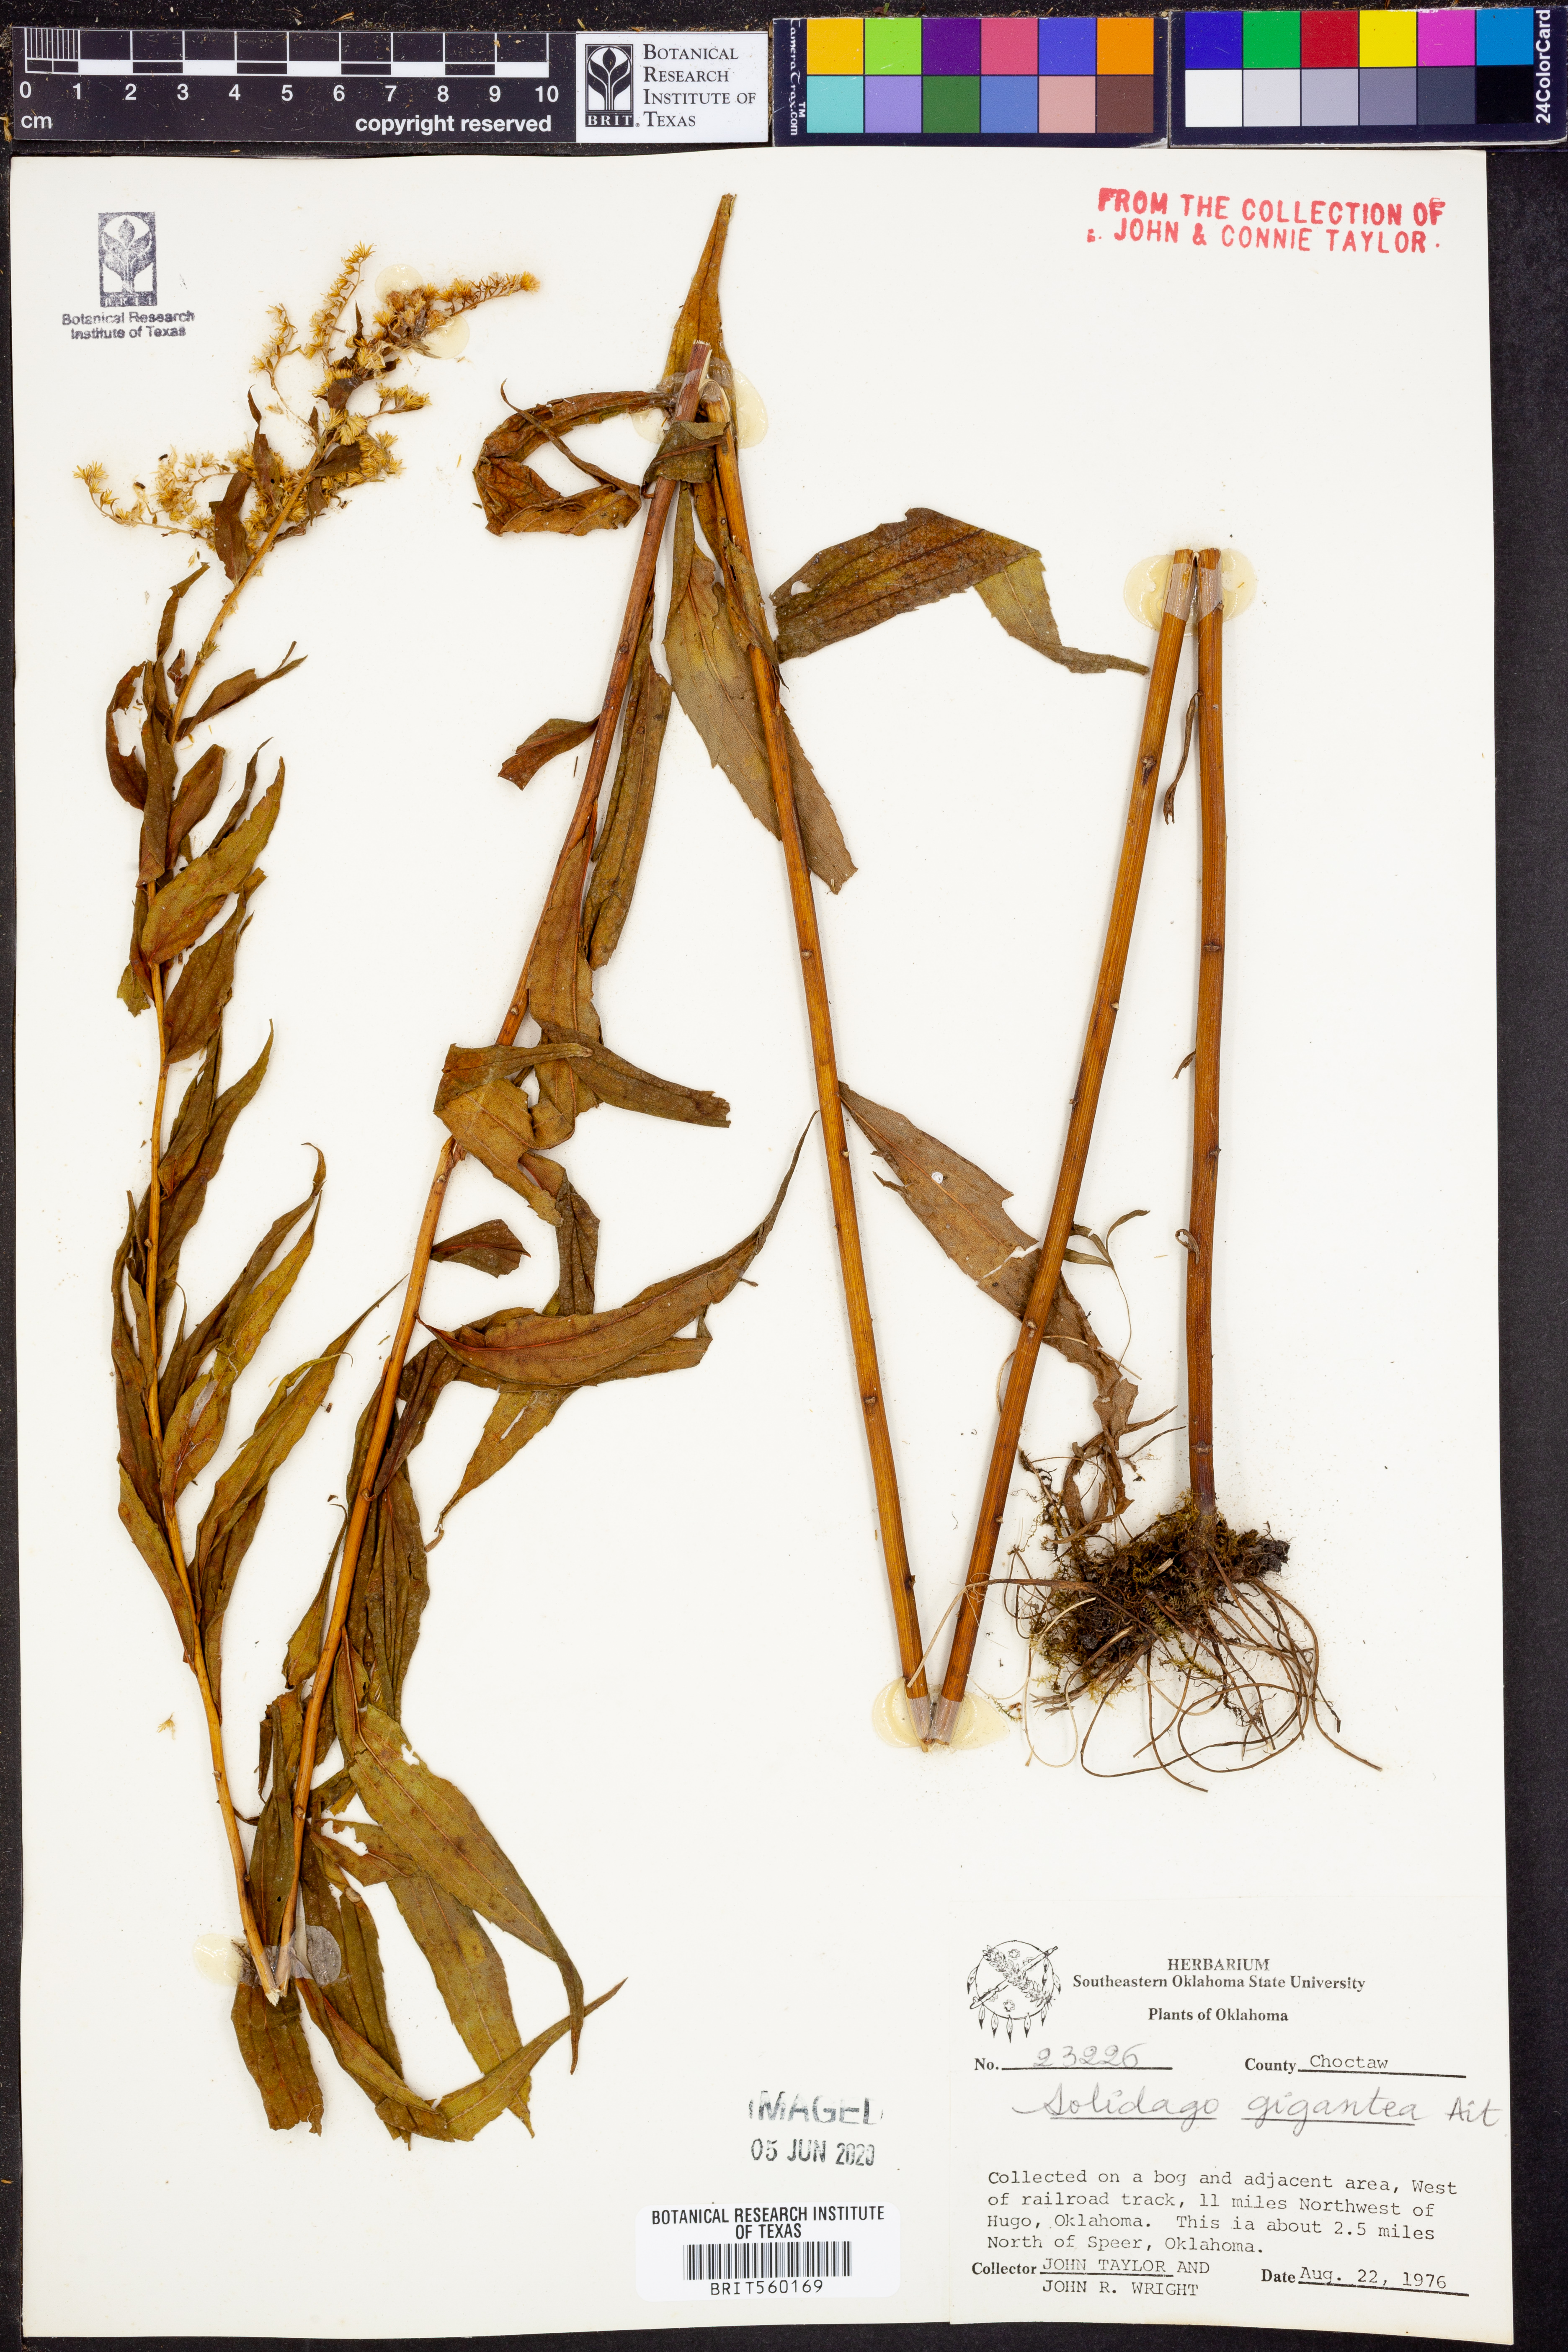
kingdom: Plantae
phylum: Tracheophyta
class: Magnoliopsida
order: Asterales
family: Asteraceae
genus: Solidago
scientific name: Solidago gigantea
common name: Giant goldenrod
